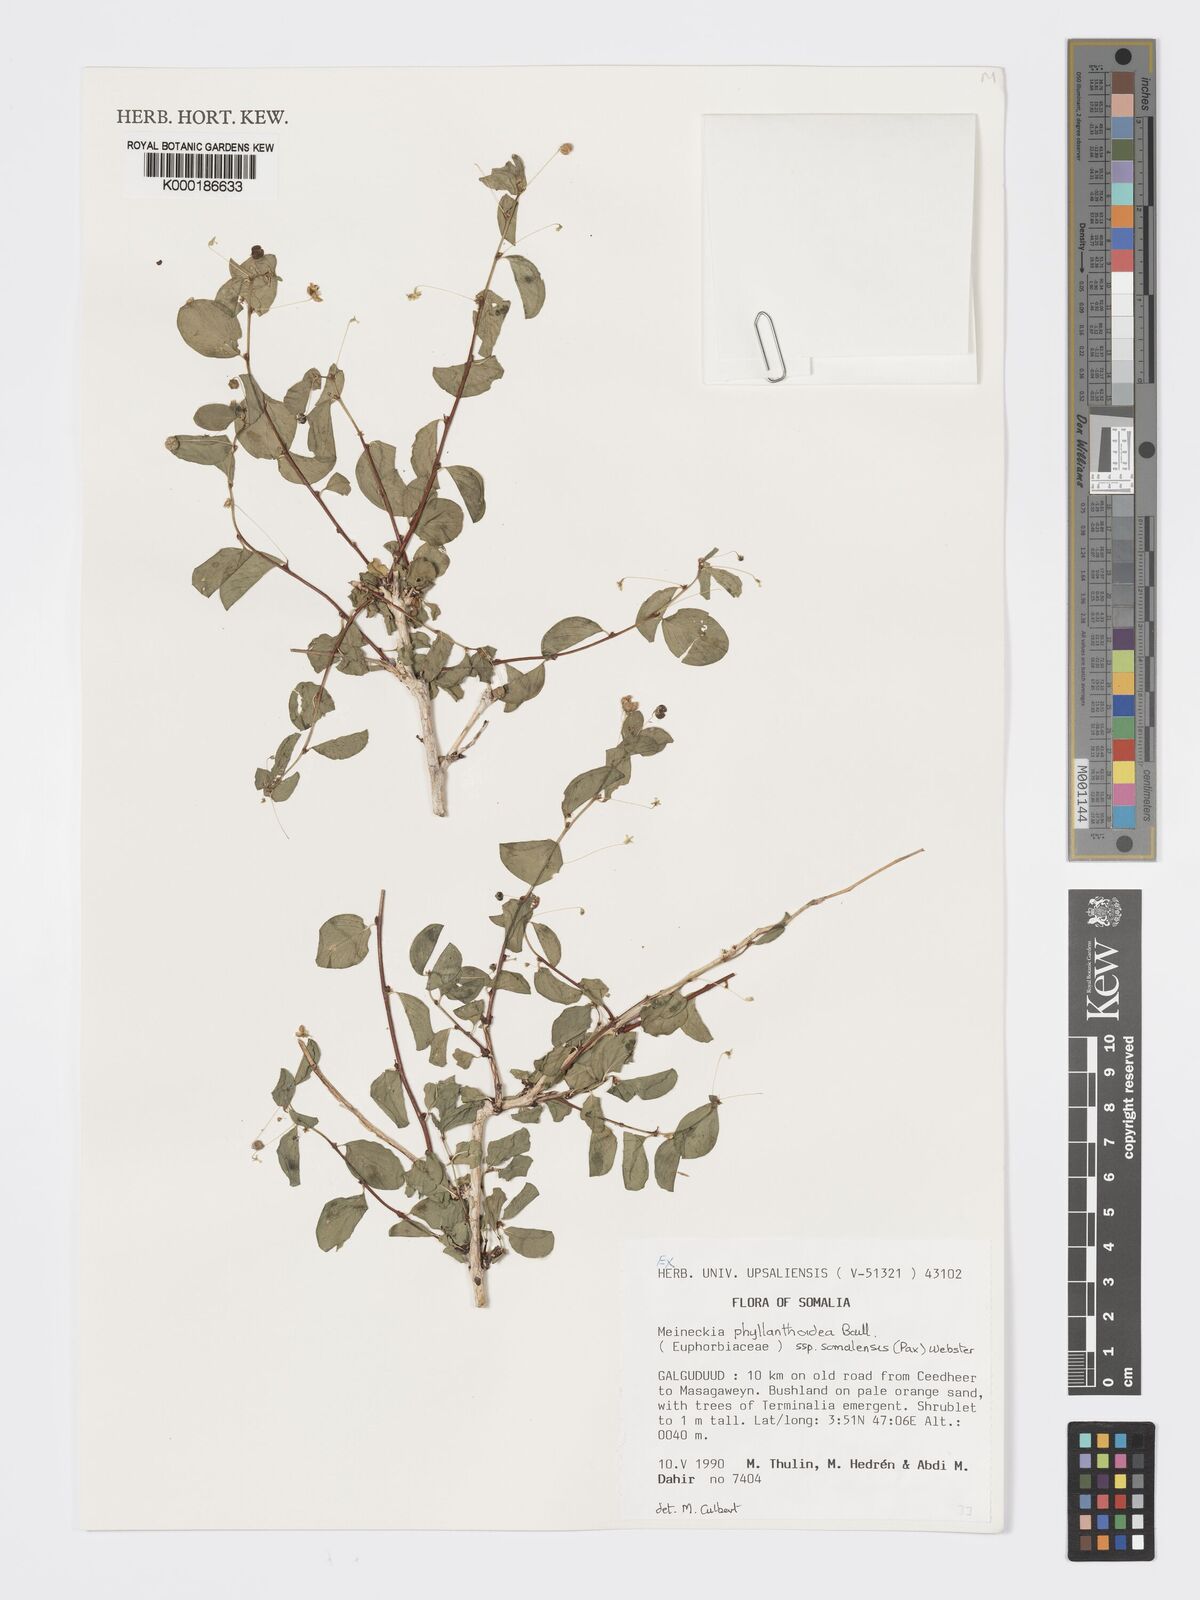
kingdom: Plantae
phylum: Tracheophyta
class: Magnoliopsida
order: Malpighiales
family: Phyllanthaceae
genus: Meineckia
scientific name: Meineckia phyllanthoides
